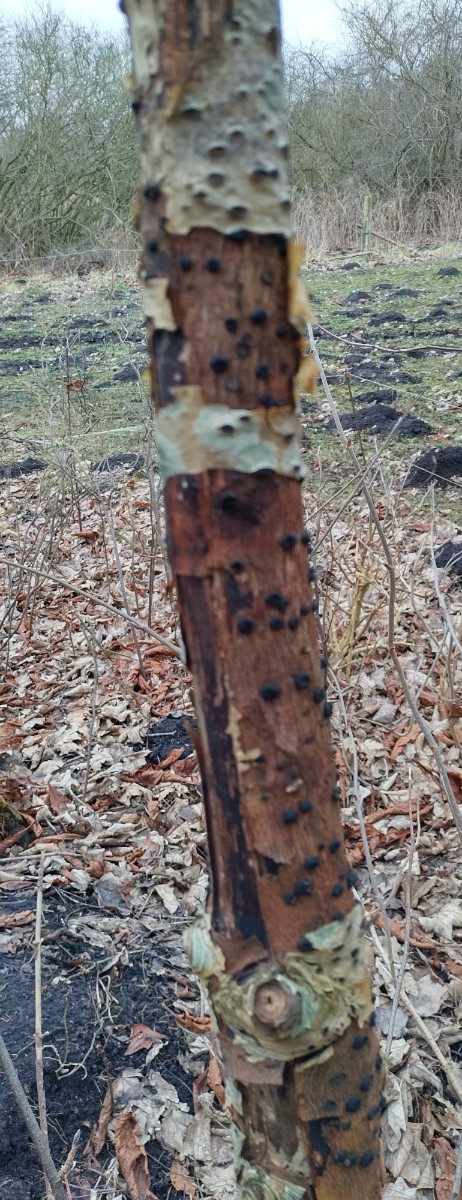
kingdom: Fungi
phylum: Ascomycota
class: Sordariomycetes
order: Xylariales
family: Diatrypaceae
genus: Eutypella
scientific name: Eutypella sorbi
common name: rønne-kulskorpe
